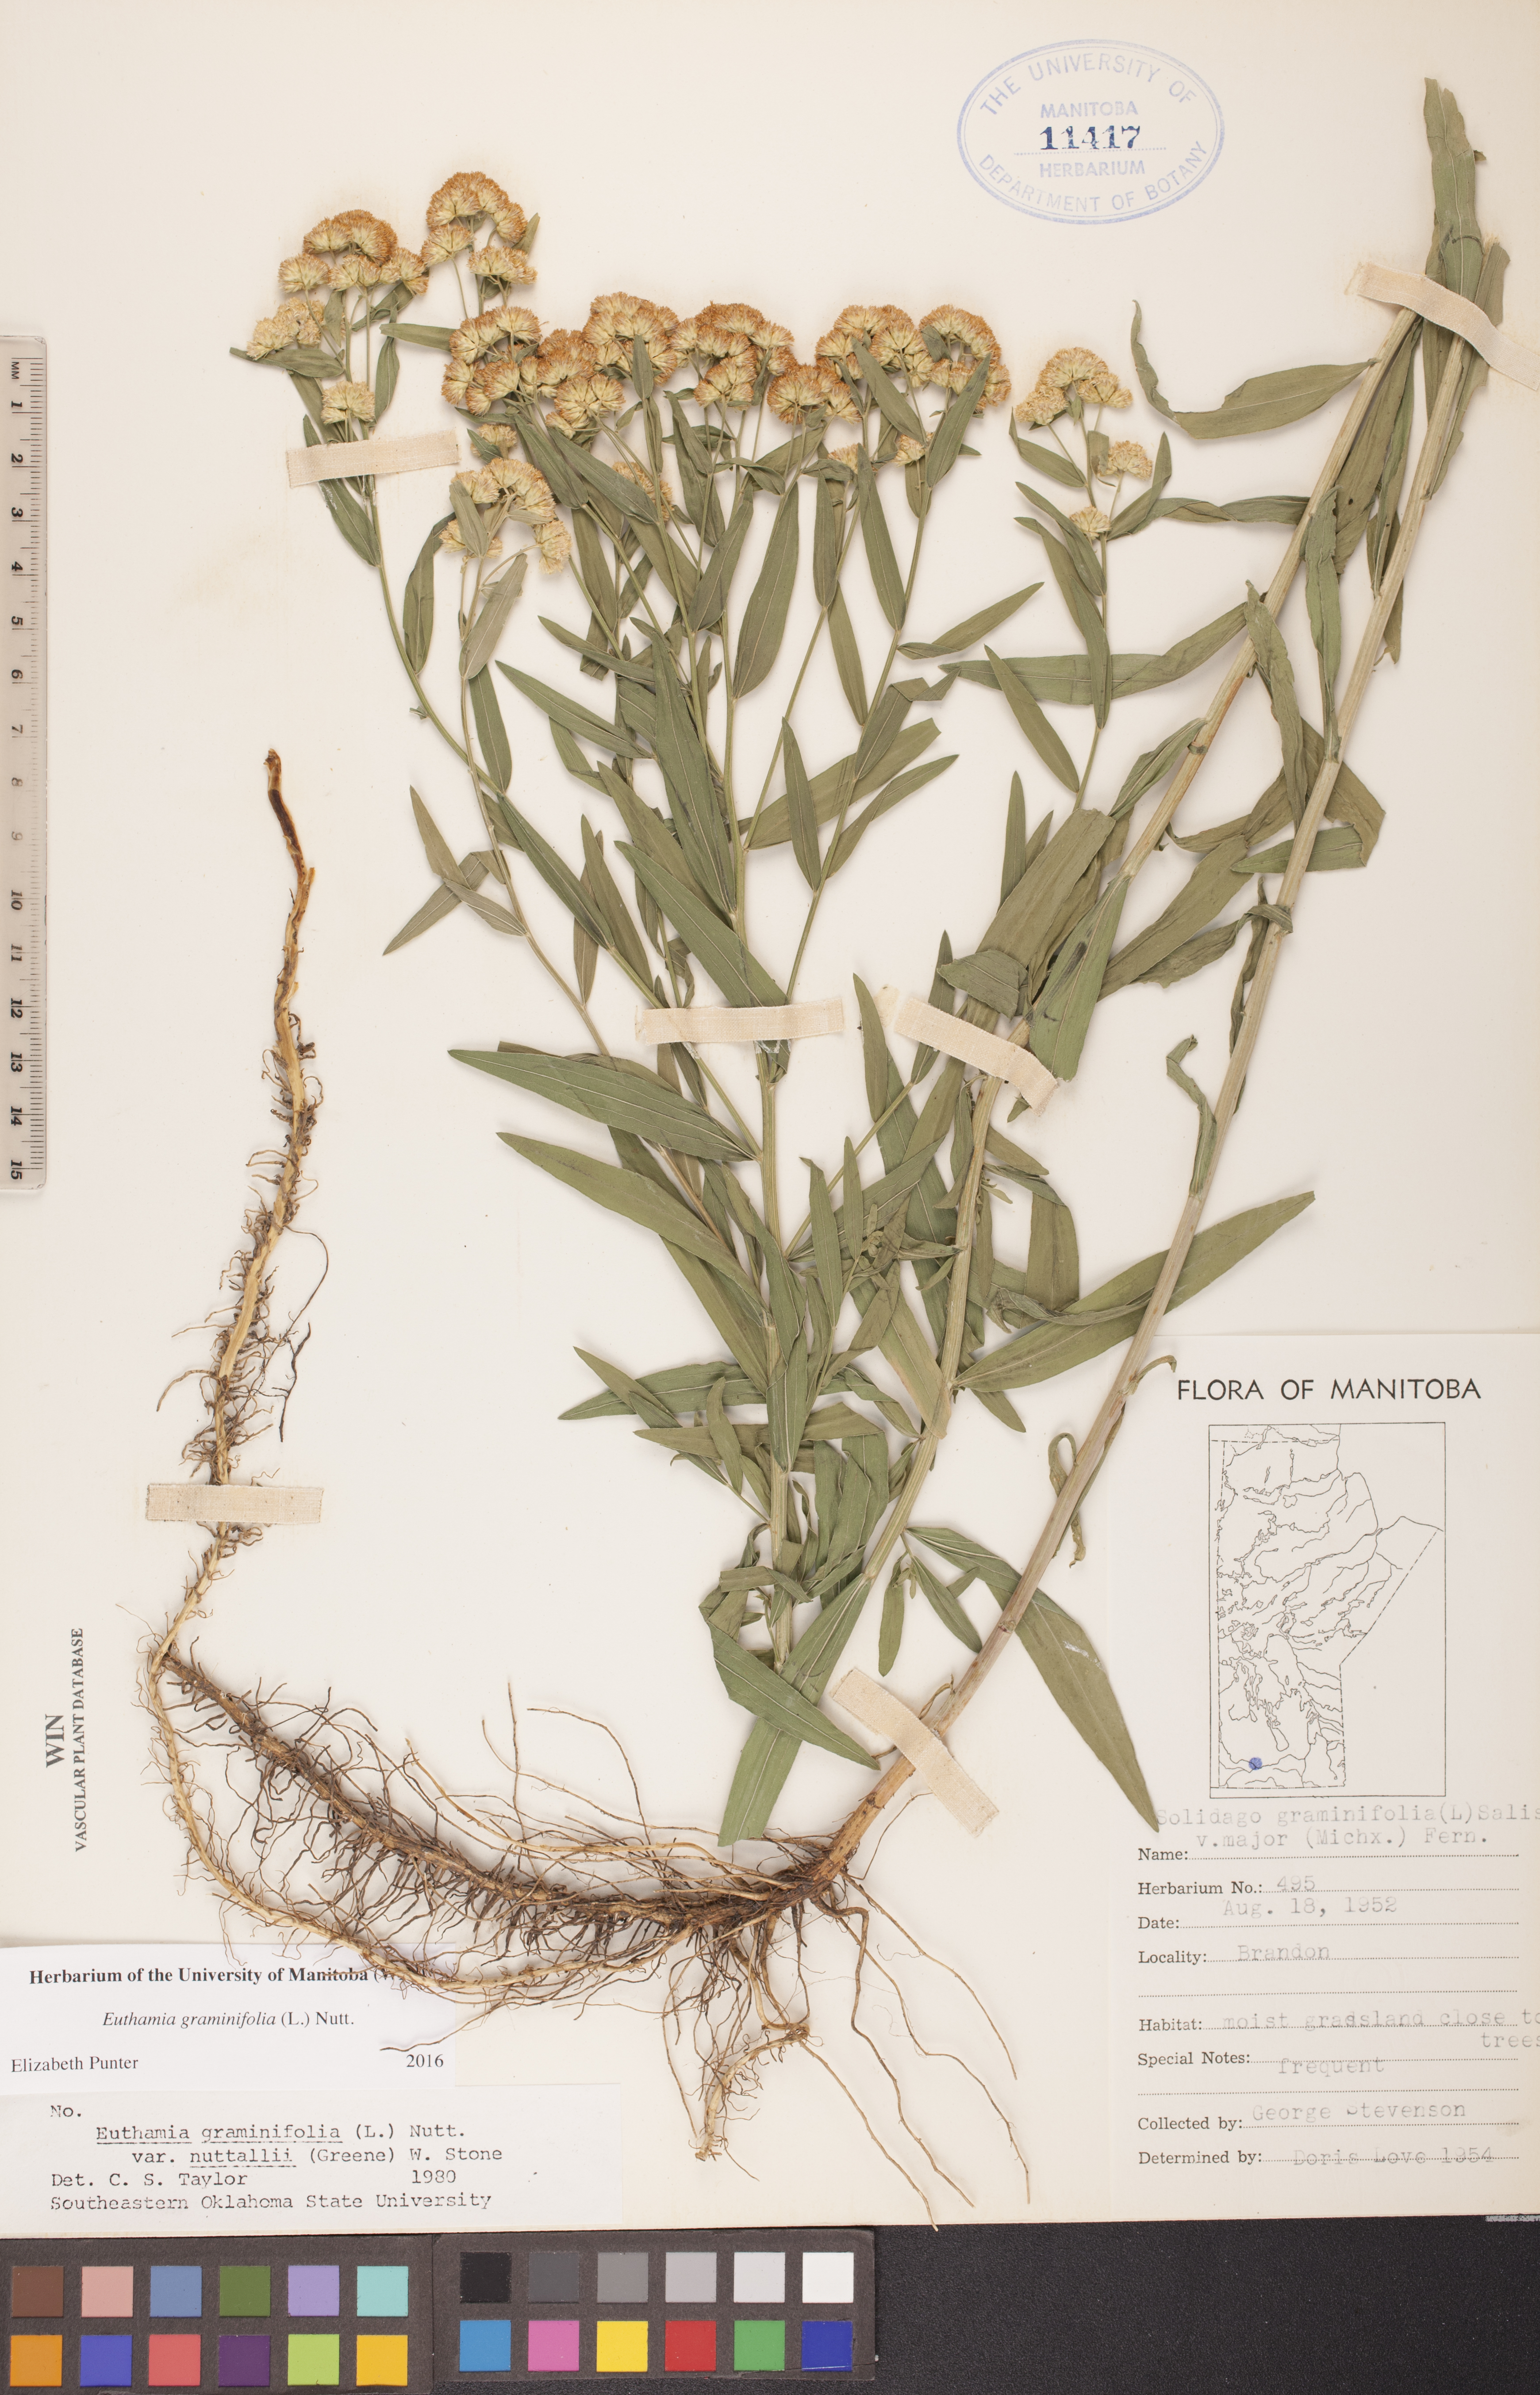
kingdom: Plantae
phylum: Tracheophyta
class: Magnoliopsida
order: Asterales
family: Asteraceae
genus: Euthamia
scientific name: Euthamia graminifolia
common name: Common goldentop
